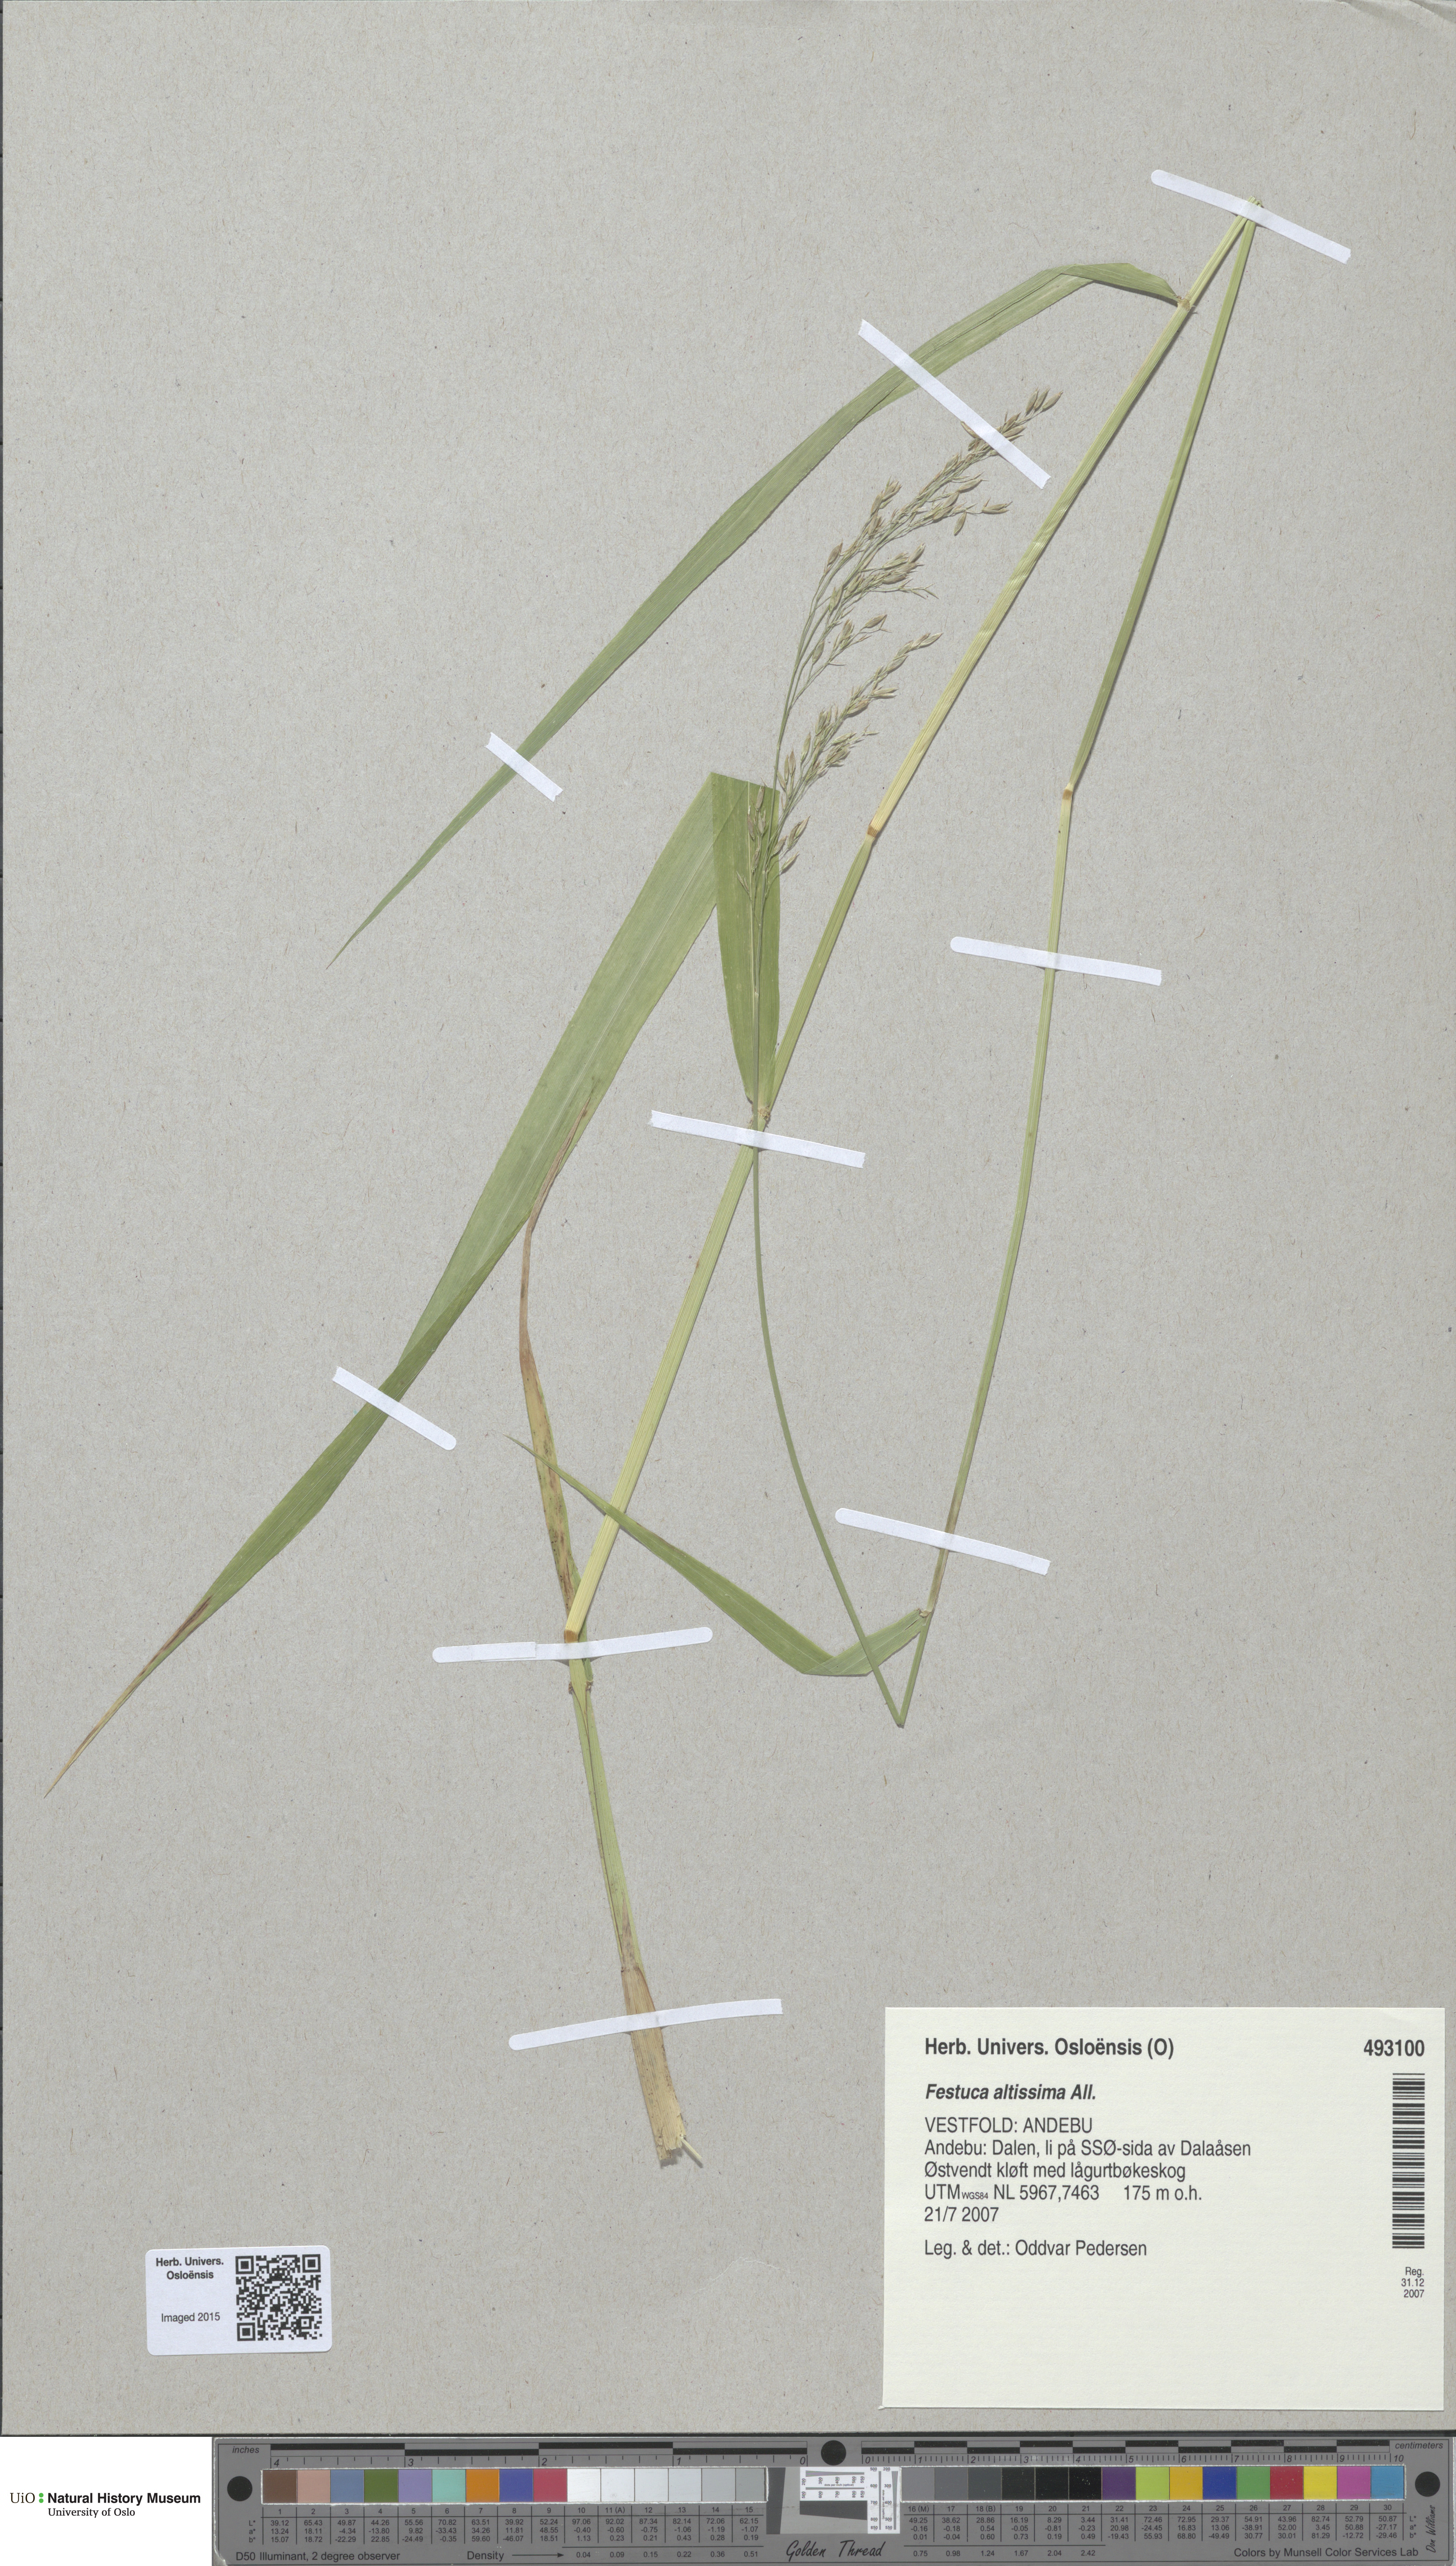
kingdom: Plantae
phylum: Tracheophyta
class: Liliopsida
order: Poales
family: Poaceae
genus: Festuca
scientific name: Festuca altissima
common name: Wood fescue
